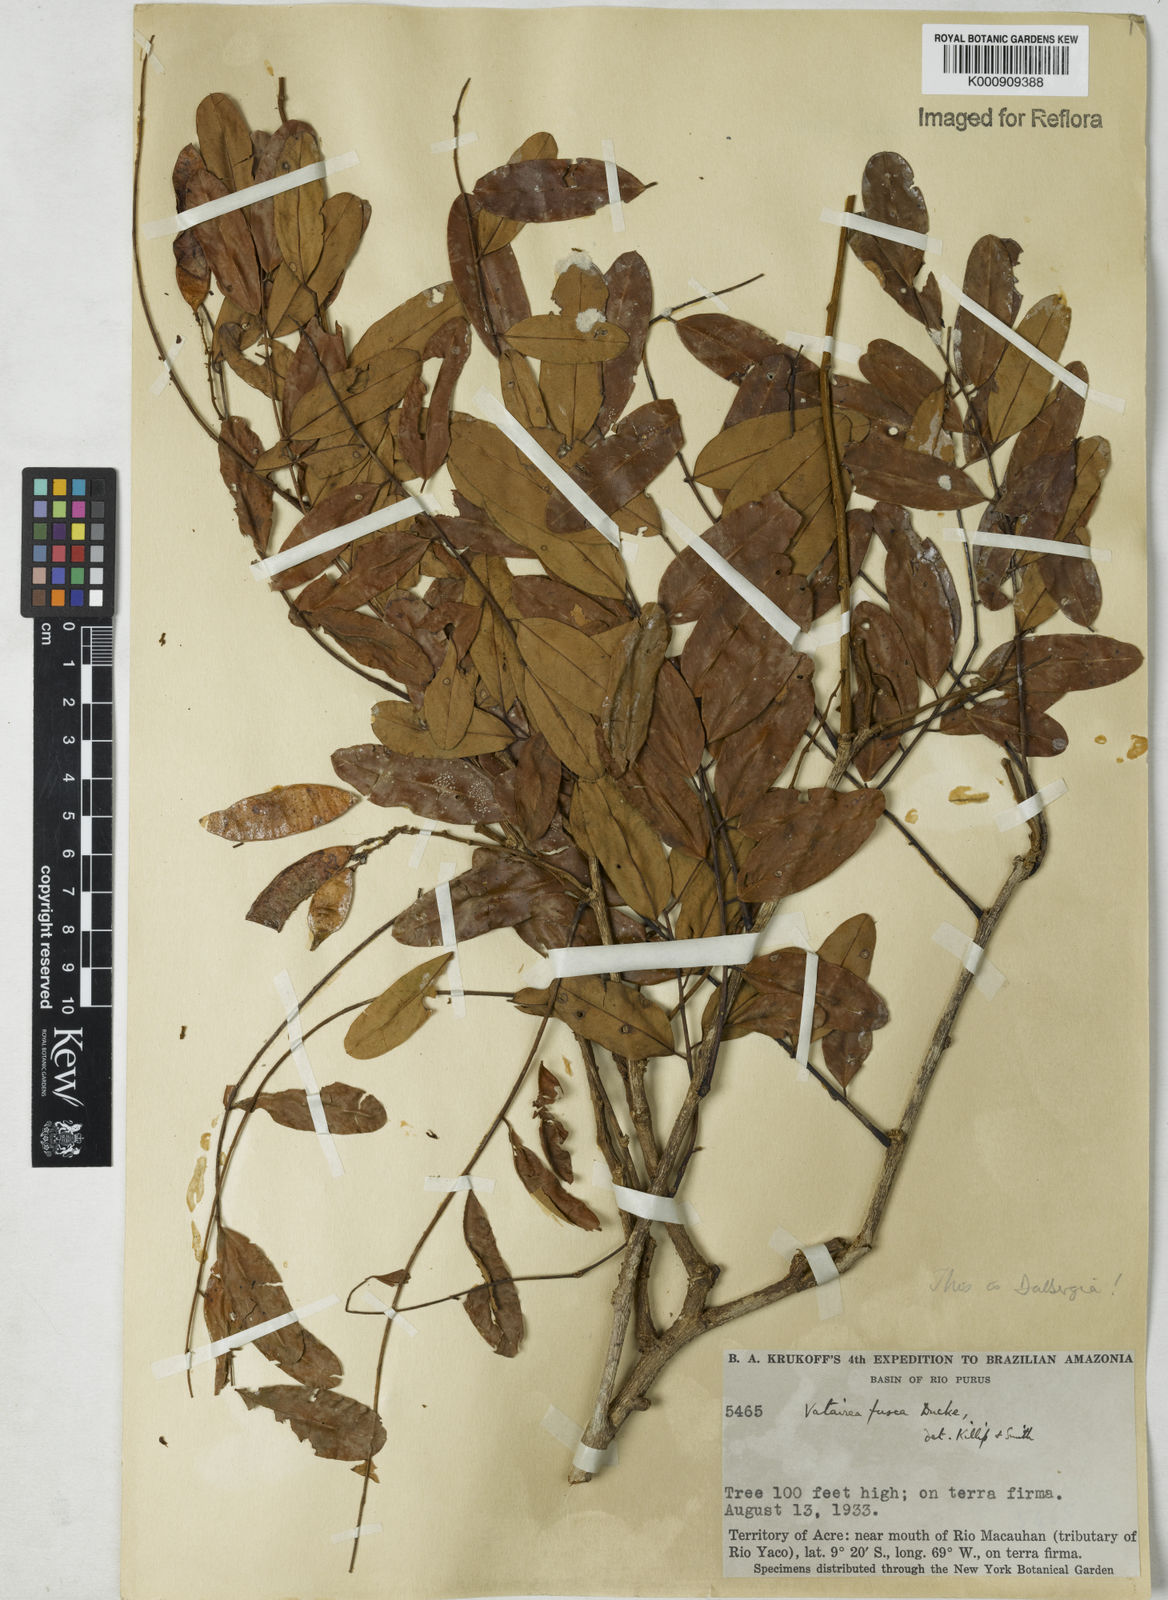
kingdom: Plantae
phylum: Tracheophyta
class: Magnoliopsida
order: Fabales
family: Fabaceae
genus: Dalbergia
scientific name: Dalbergia
